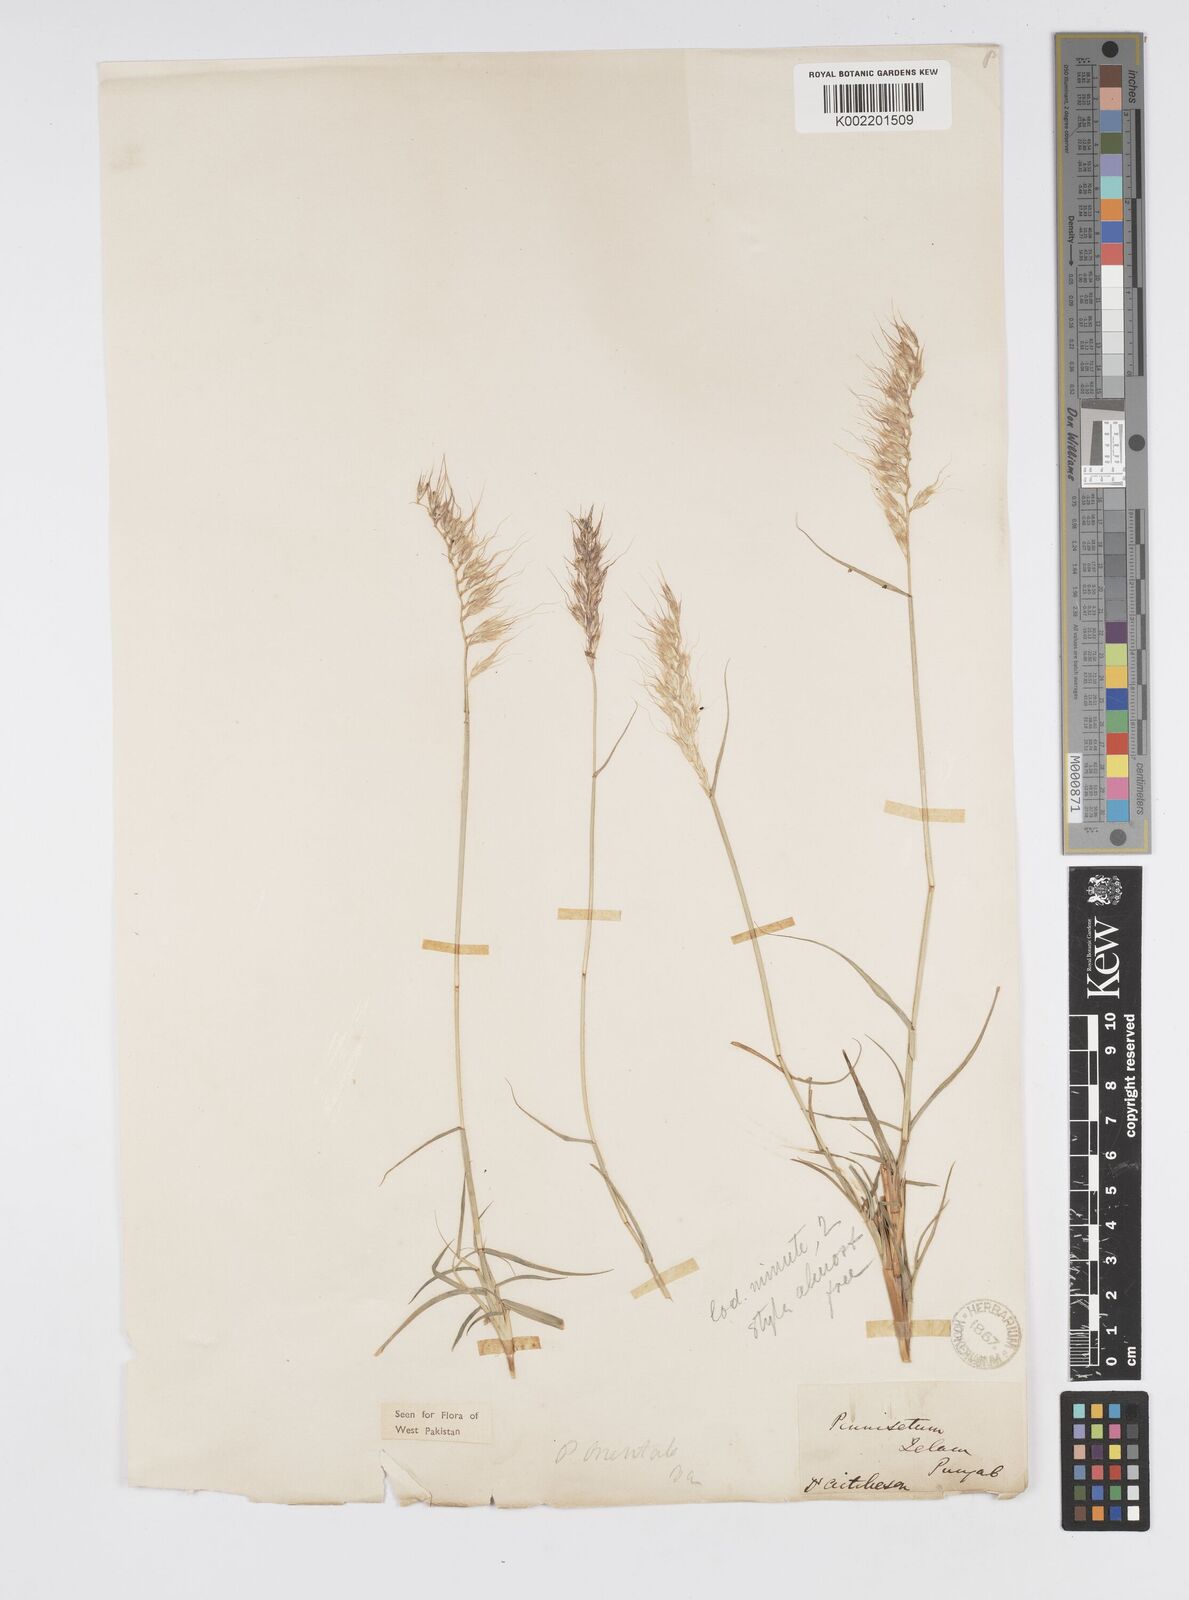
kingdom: Plantae
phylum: Tracheophyta
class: Liliopsida
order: Poales
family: Poaceae
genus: Cenchrus
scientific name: Cenchrus orientalis
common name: Oriental fountain grass
